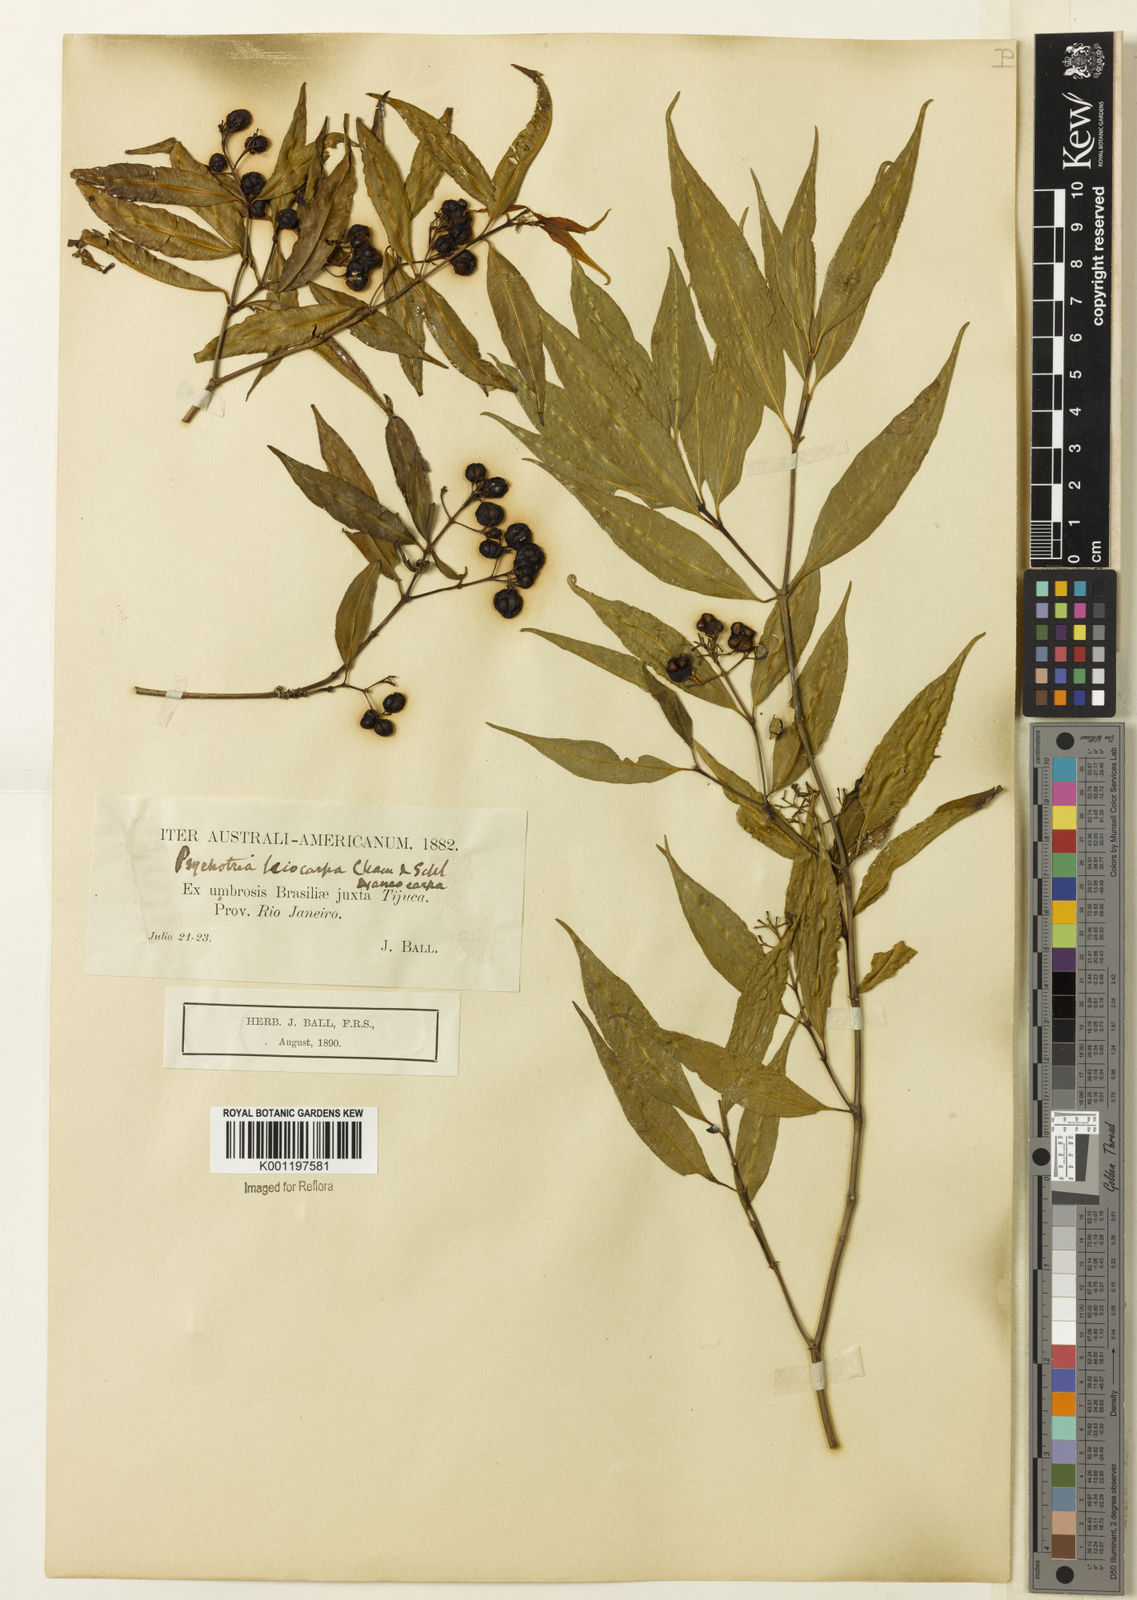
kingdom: Plantae
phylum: Tracheophyta
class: Magnoliopsida
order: Gentianales
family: Rubiaceae
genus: Psychotria
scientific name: Psychotria leiocarpa
